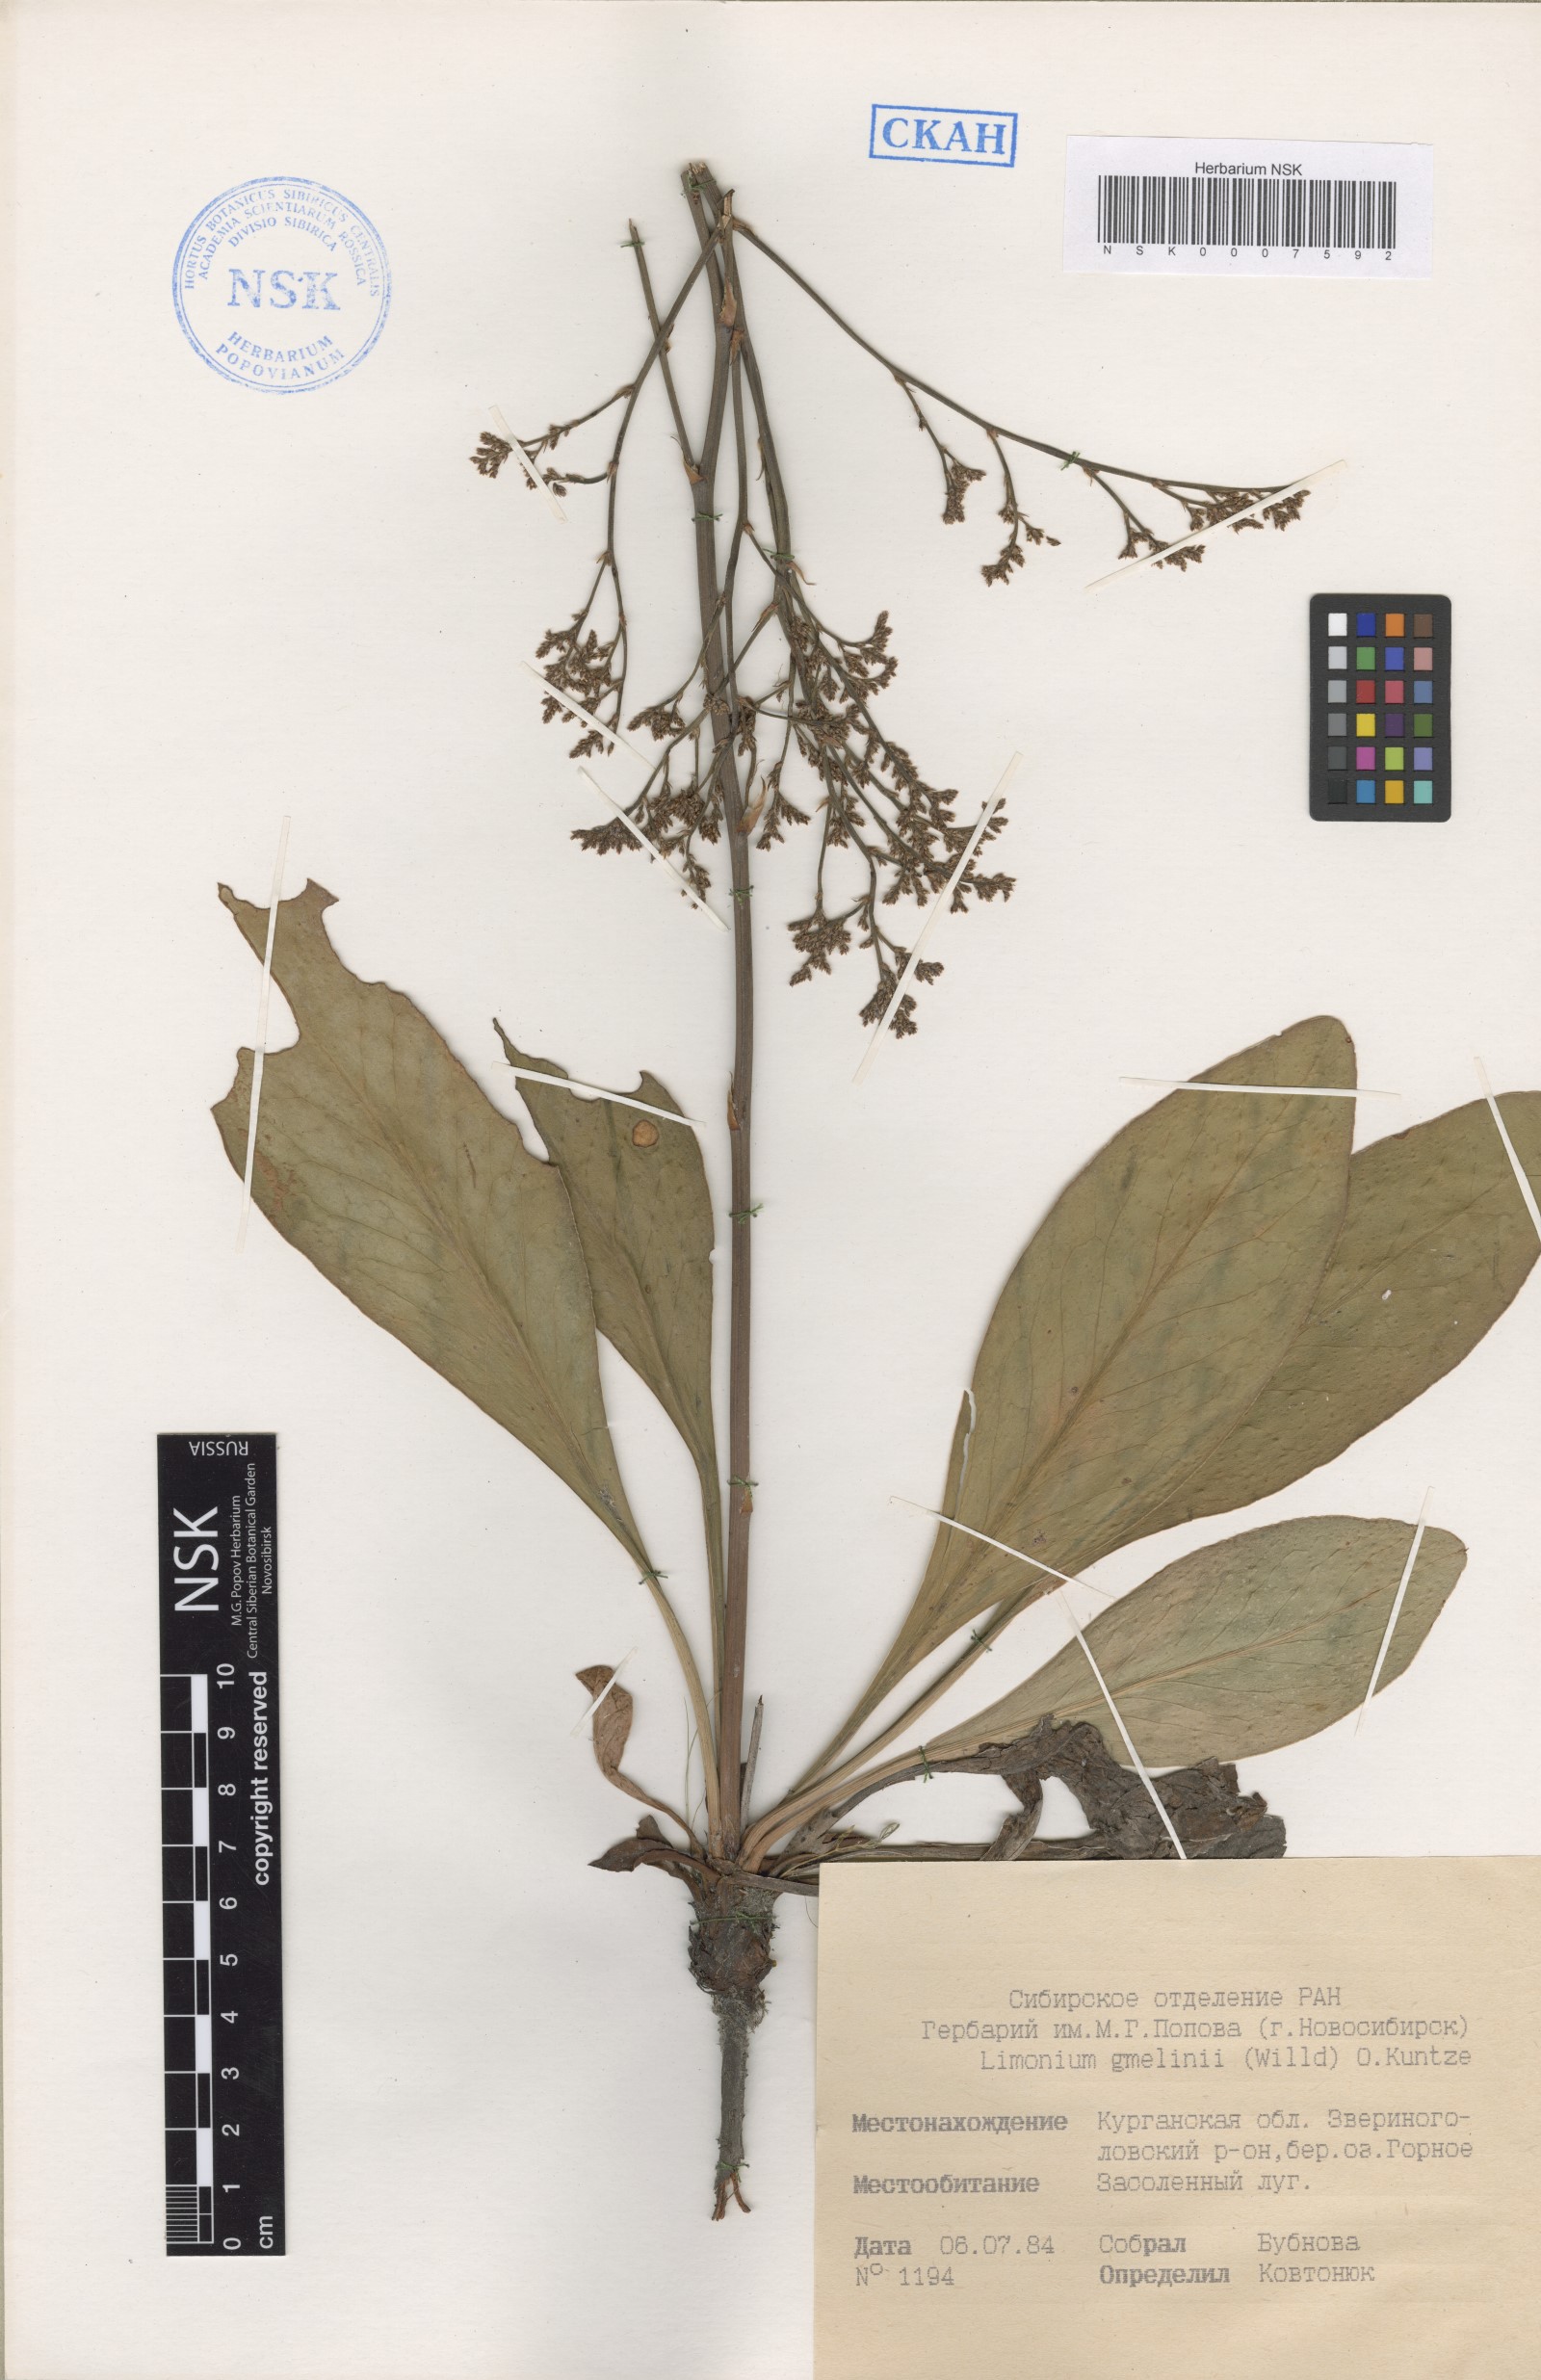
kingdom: Plantae
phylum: Tracheophyta
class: Magnoliopsida
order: Caryophyllales
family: Plumbaginaceae
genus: Limonium
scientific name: Limonium gmelini
